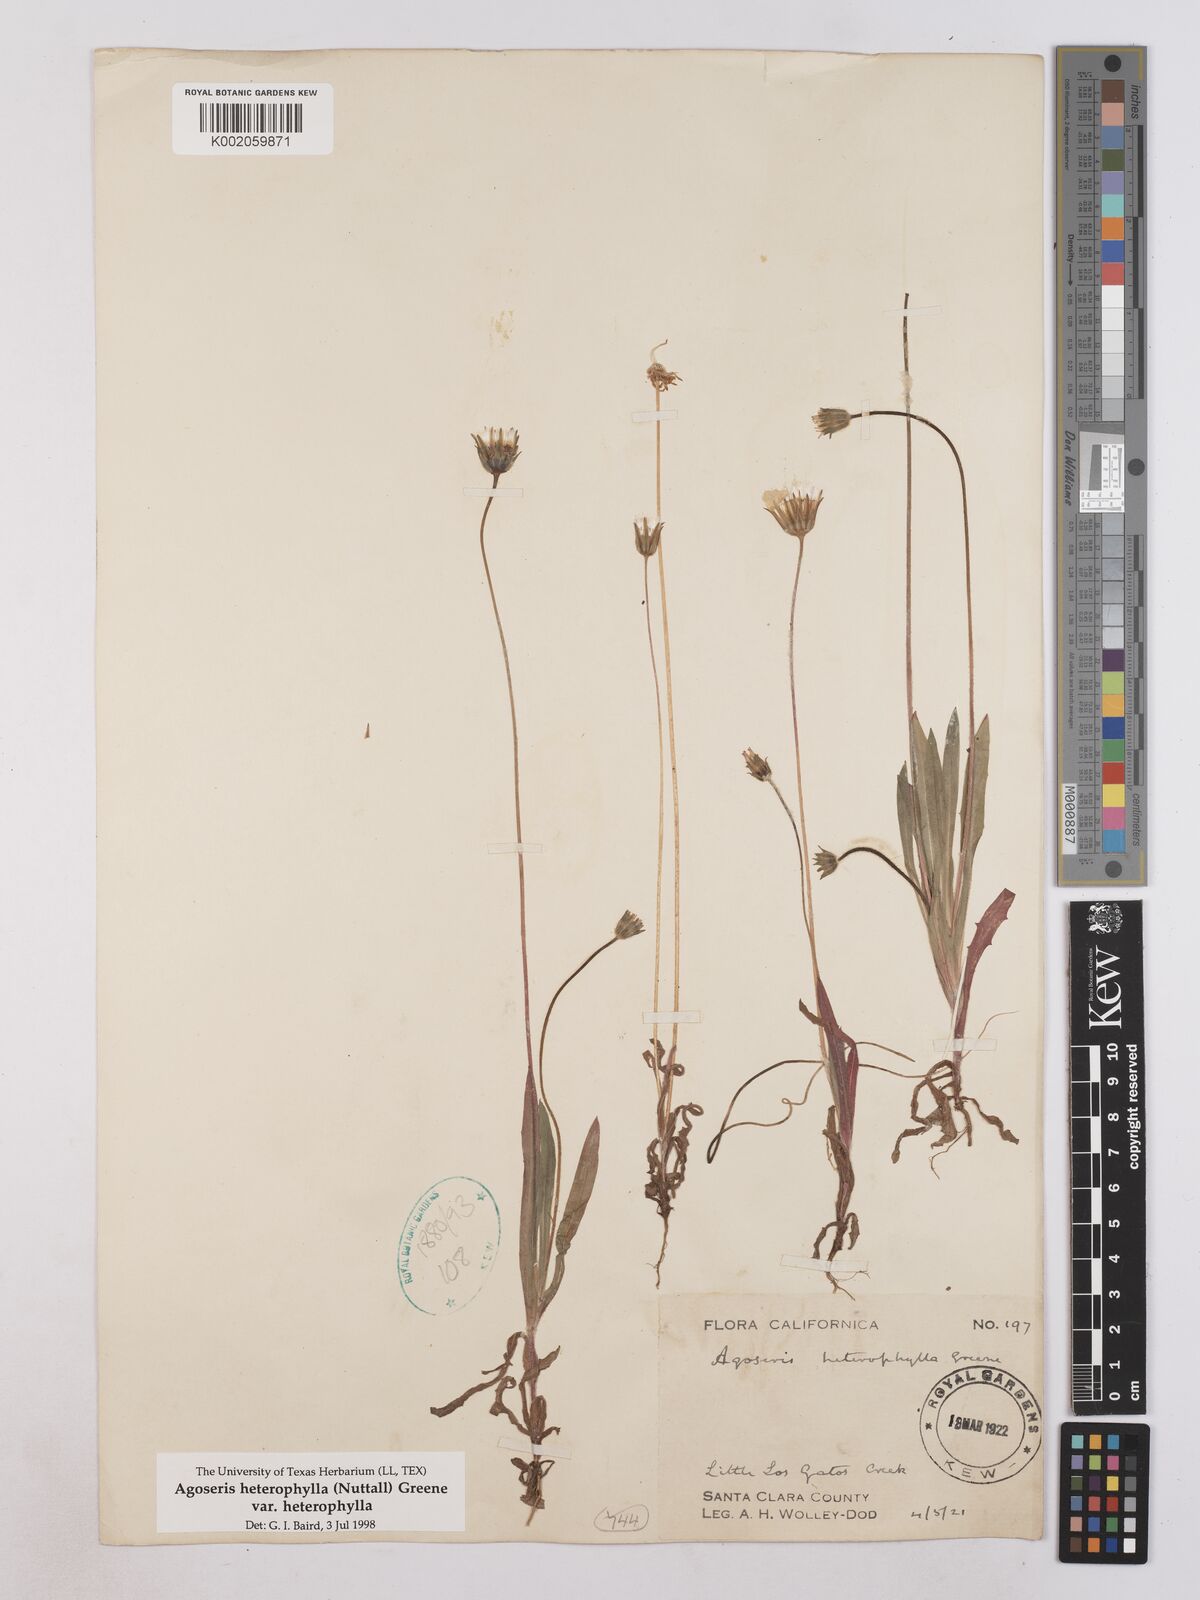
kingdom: Plantae
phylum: Tracheophyta
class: Magnoliopsida
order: Asterales
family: Asteraceae
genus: Agoseris
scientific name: Agoseris heterophylla
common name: Annual agoseris
